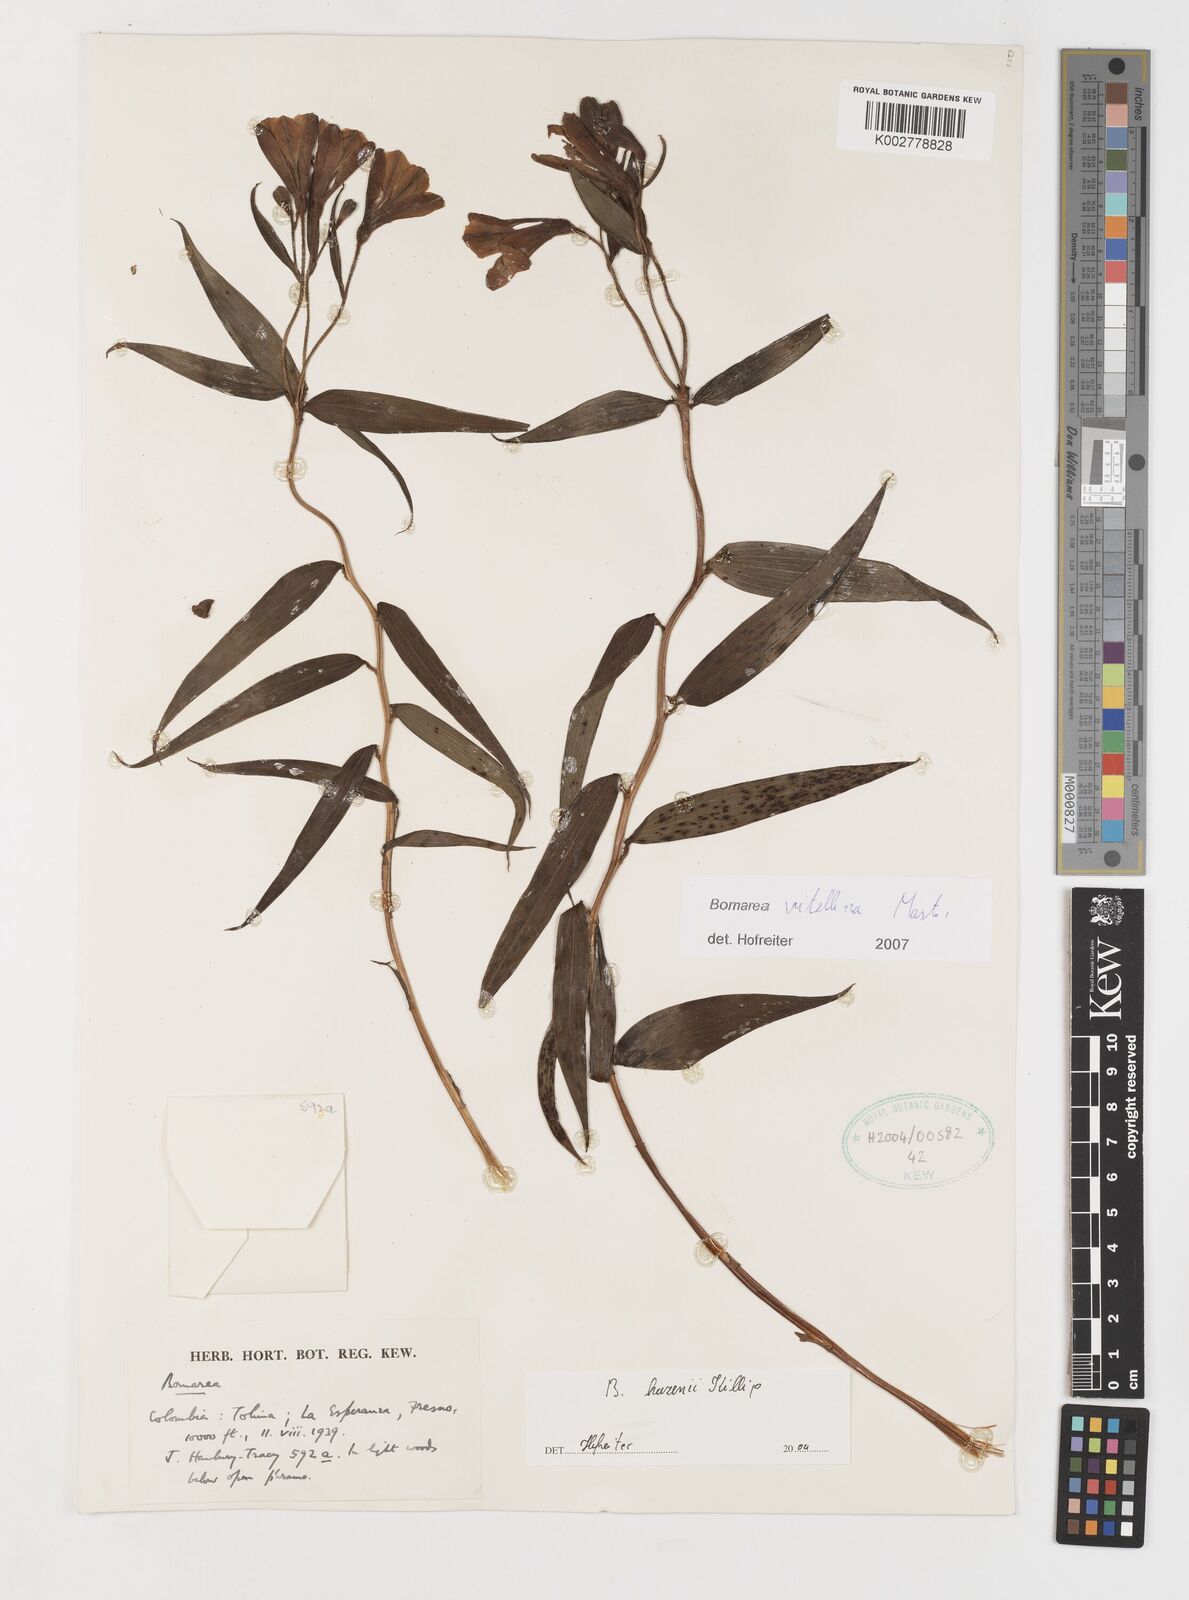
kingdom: Plantae
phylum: Tracheophyta
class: Liliopsida
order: Liliales
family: Alstroemeriaceae
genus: Bomarea
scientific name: Bomarea vitellina
